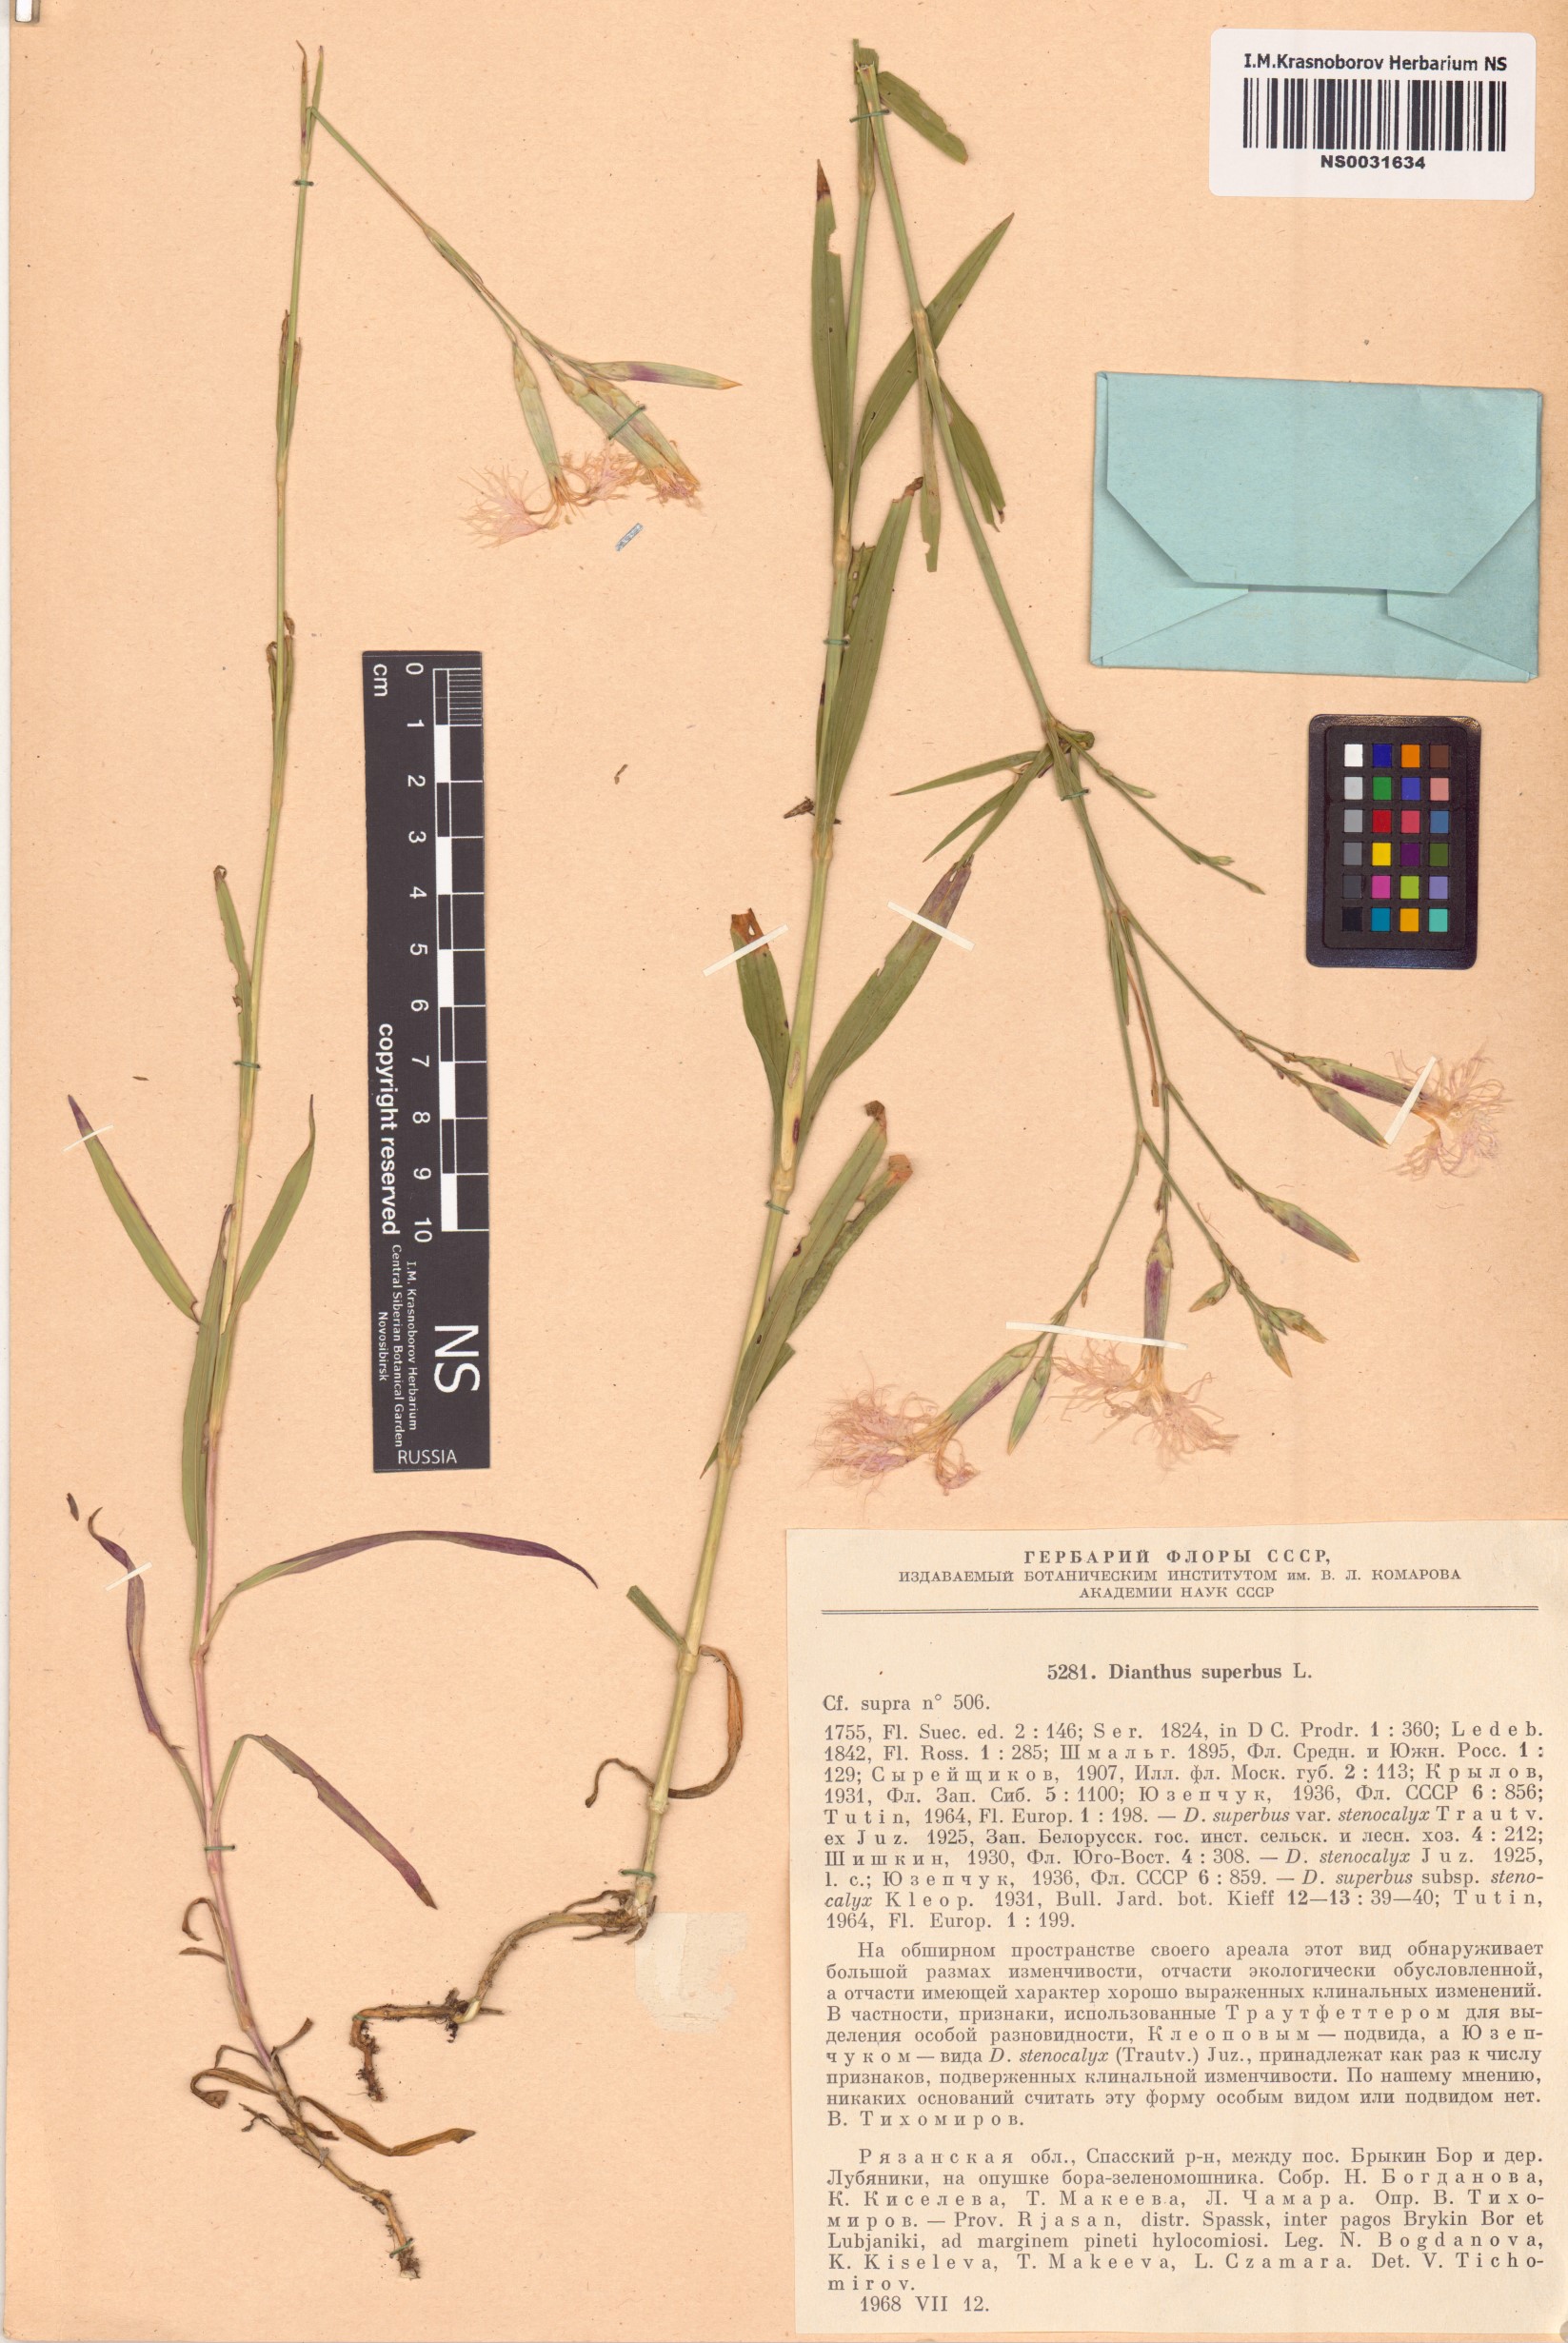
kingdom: Plantae
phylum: Tracheophyta
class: Magnoliopsida
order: Caryophyllales
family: Caryophyllaceae
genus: Dianthus
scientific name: Dianthus superbus
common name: Fringed pink
